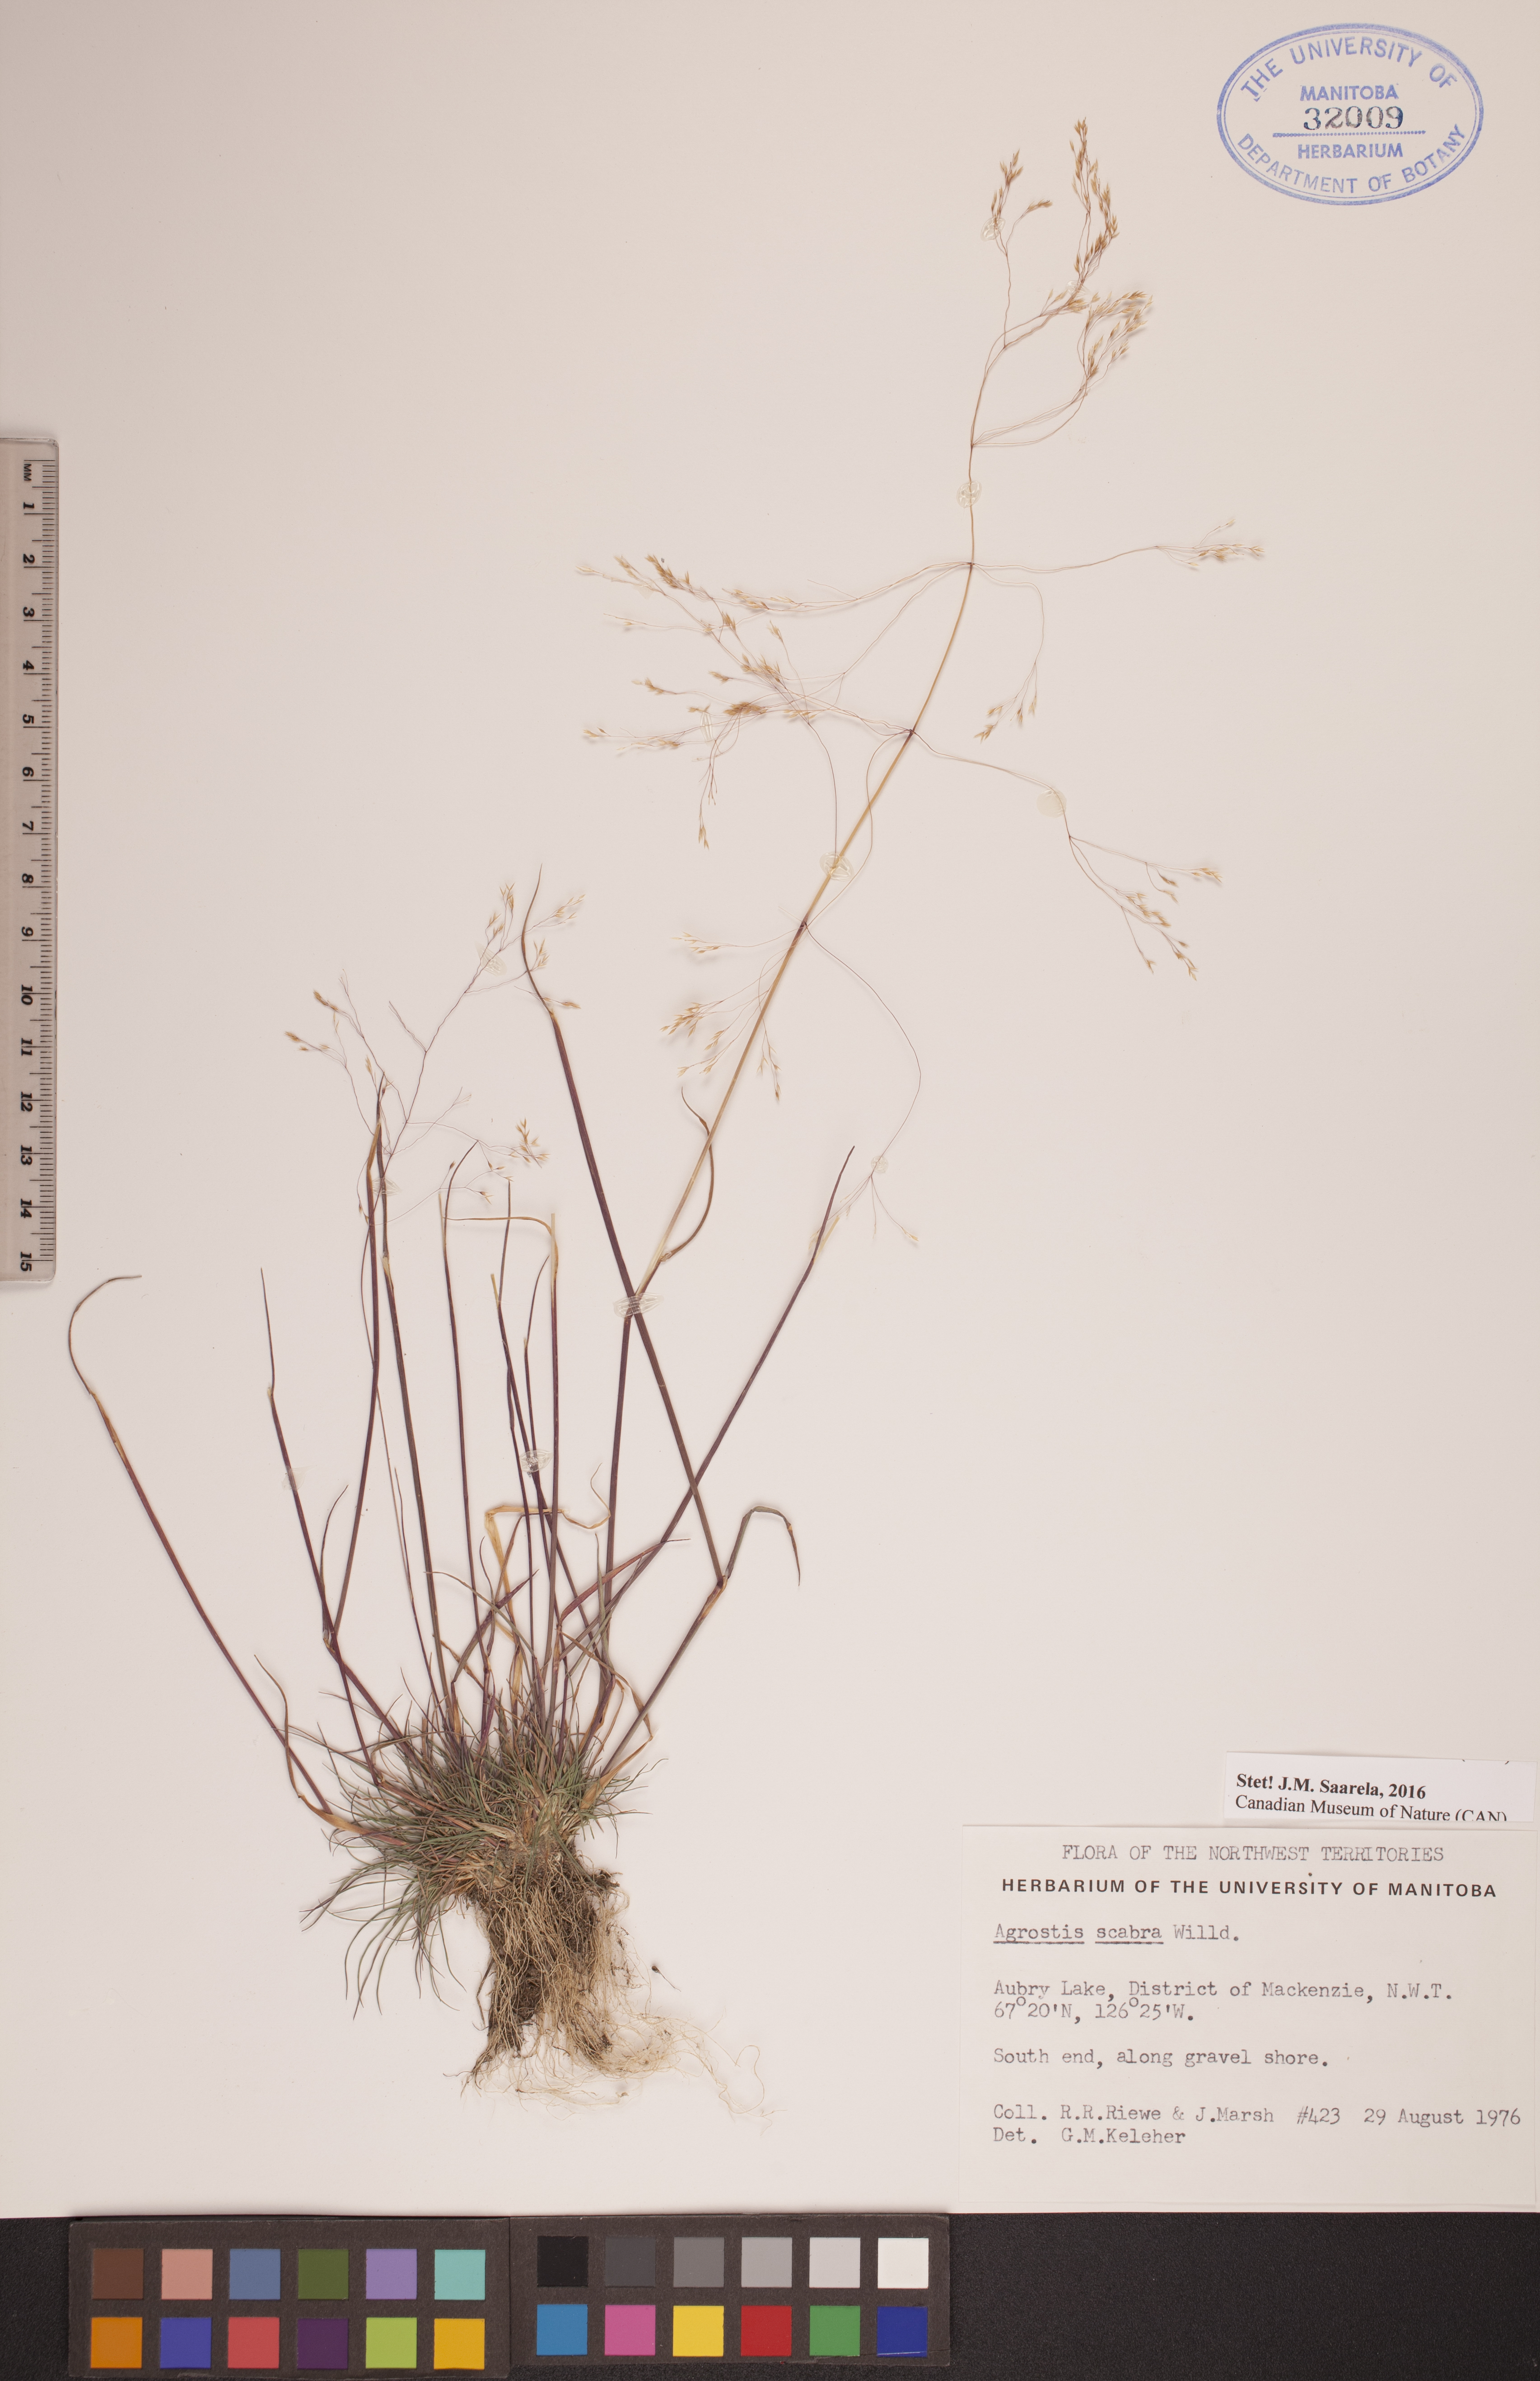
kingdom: Plantae
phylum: Tracheophyta
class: Liliopsida
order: Poales
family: Poaceae
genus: Agrostis
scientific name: Agrostis scabra
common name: Rough bent
